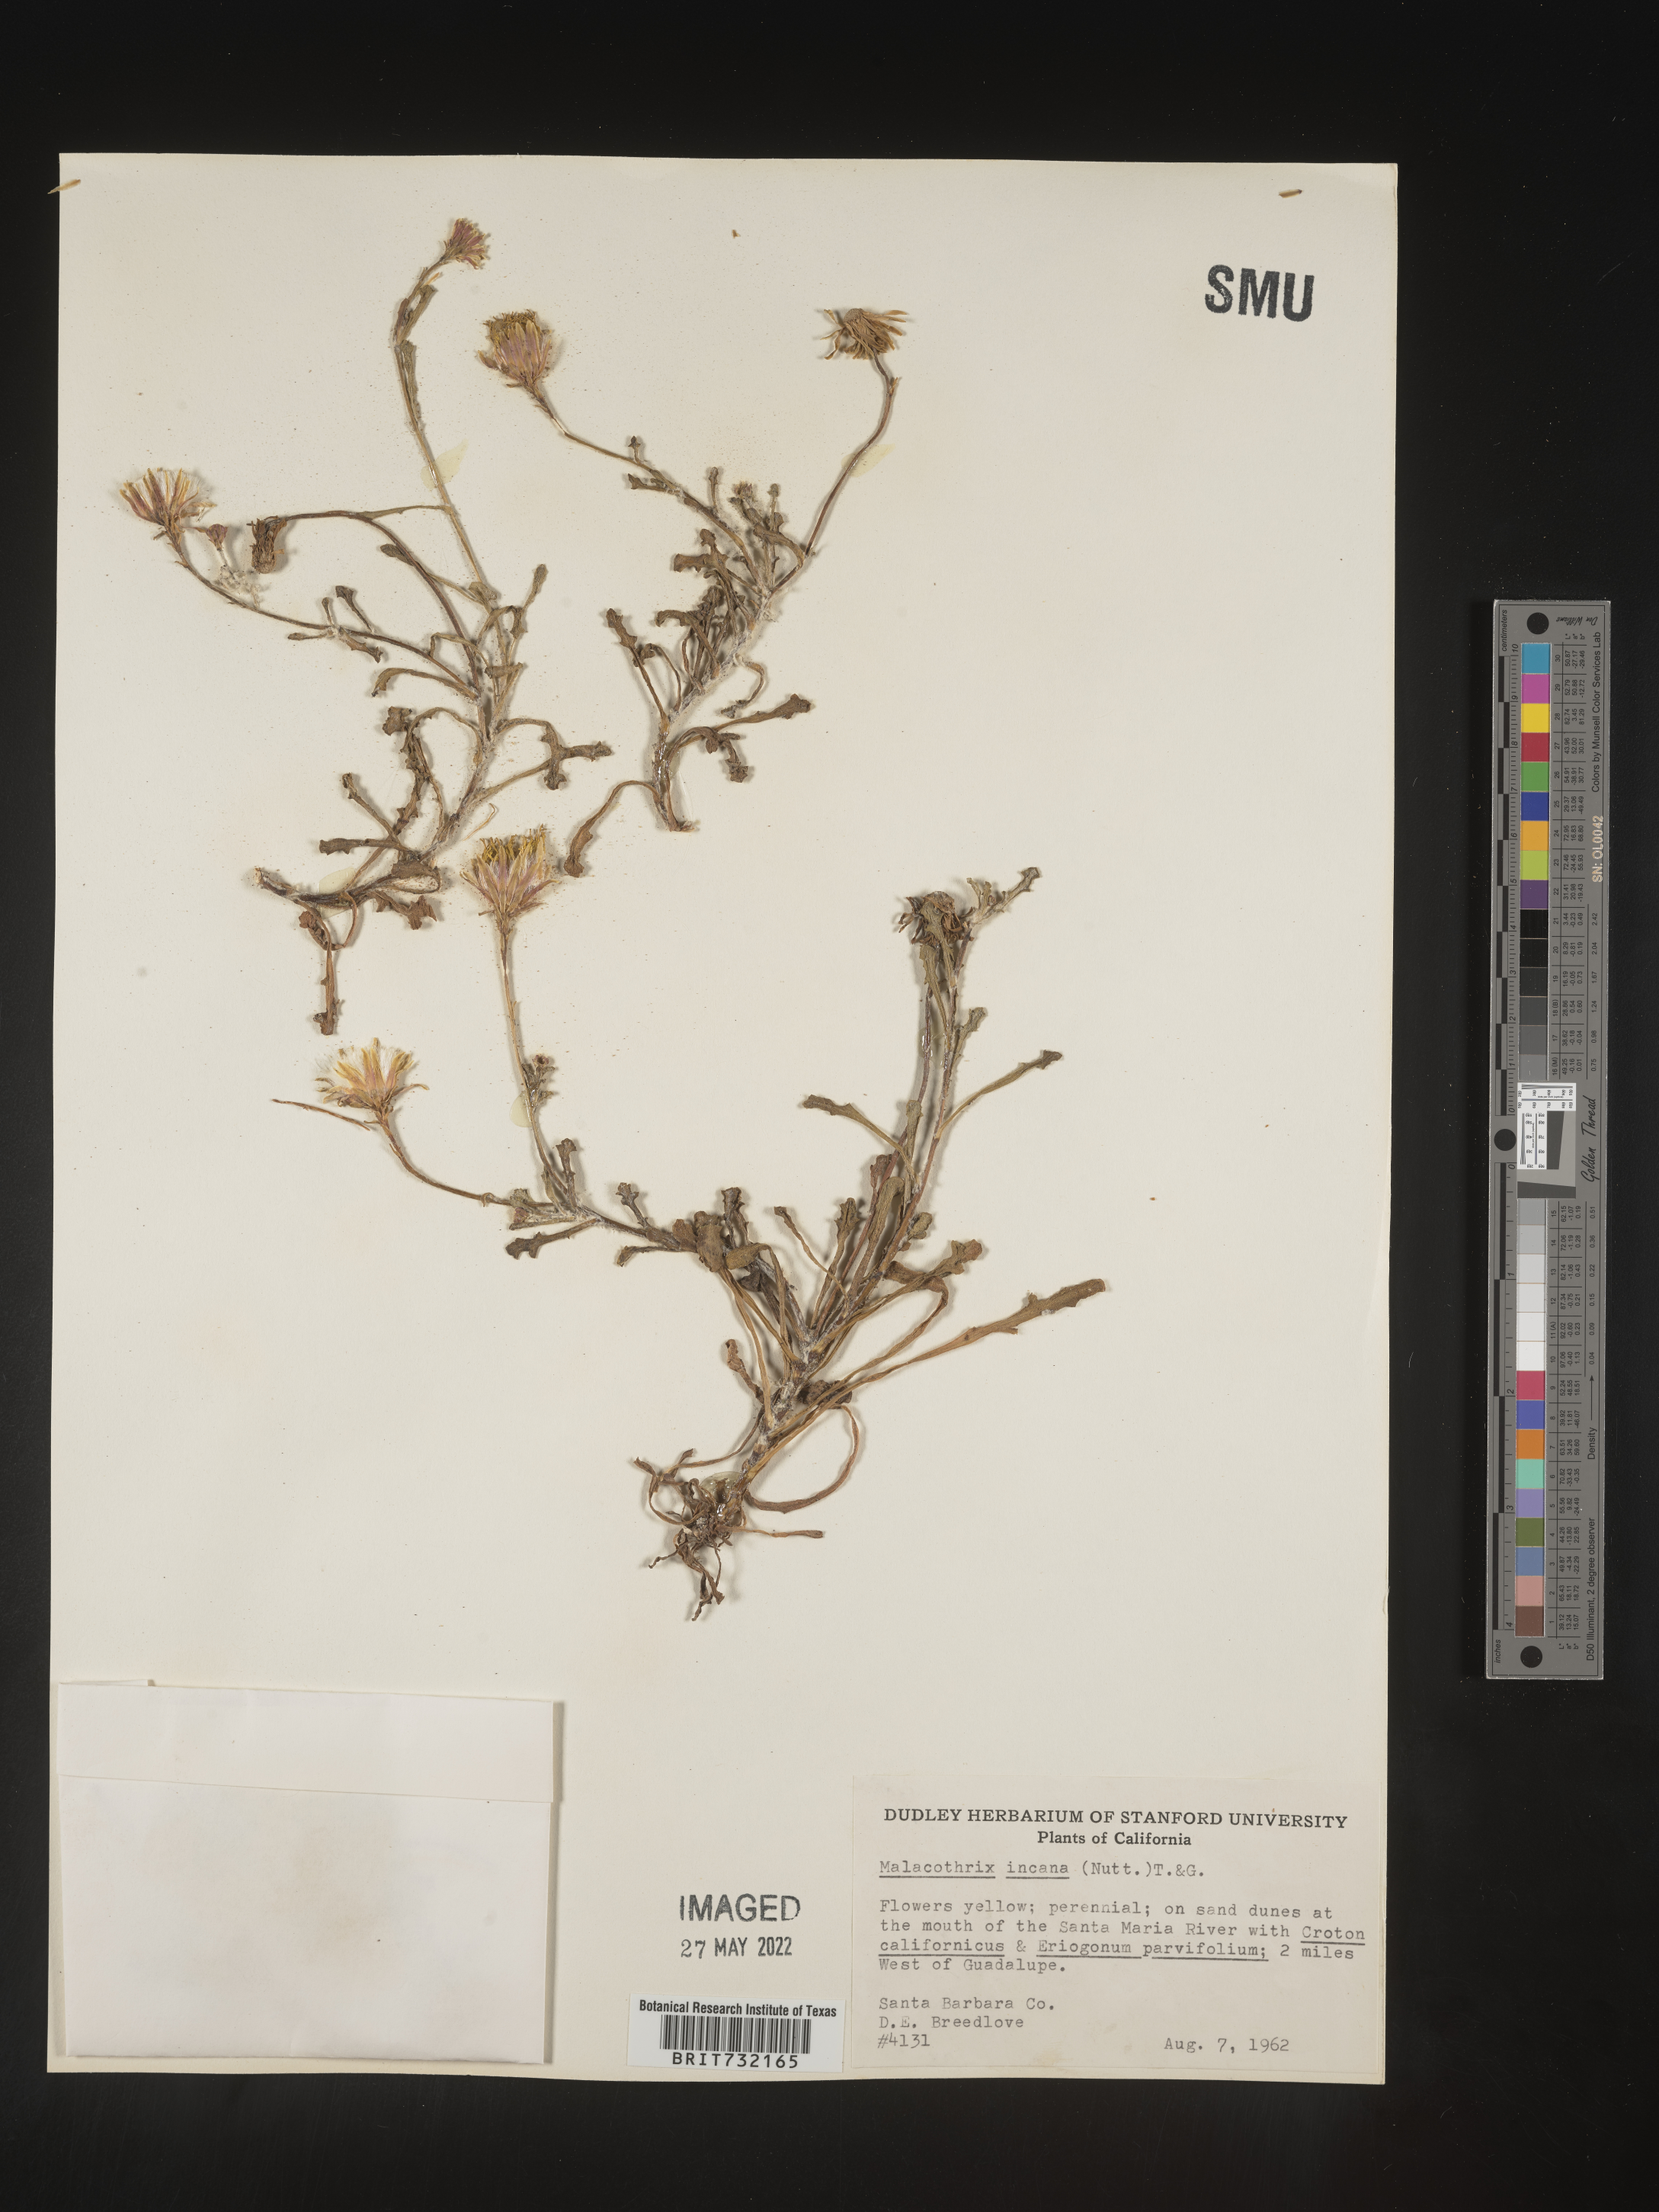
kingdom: Plantae
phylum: Tracheophyta
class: Magnoliopsida
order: Asterales
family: Asteraceae
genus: Malacothrix
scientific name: Malacothrix incana
